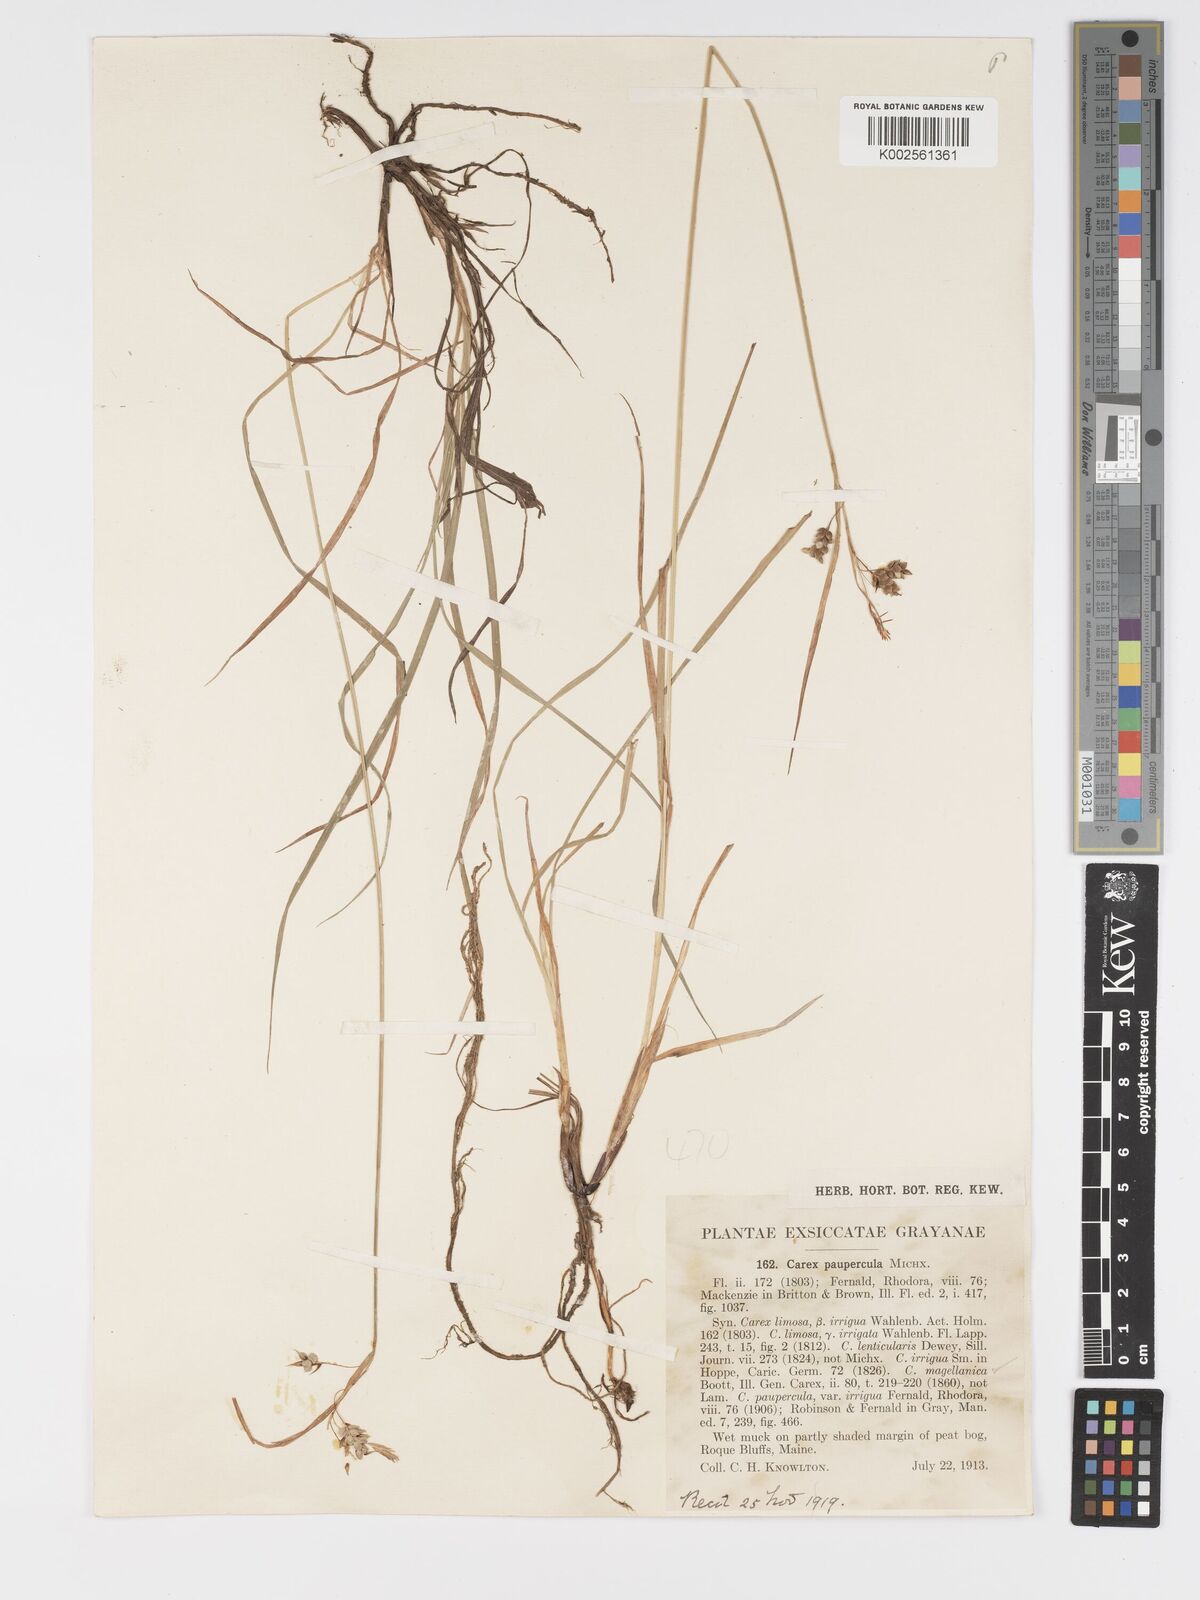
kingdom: Plantae
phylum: Tracheophyta
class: Liliopsida
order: Poales
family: Cyperaceae
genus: Carex
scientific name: Carex magellanica
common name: Bog sedge
